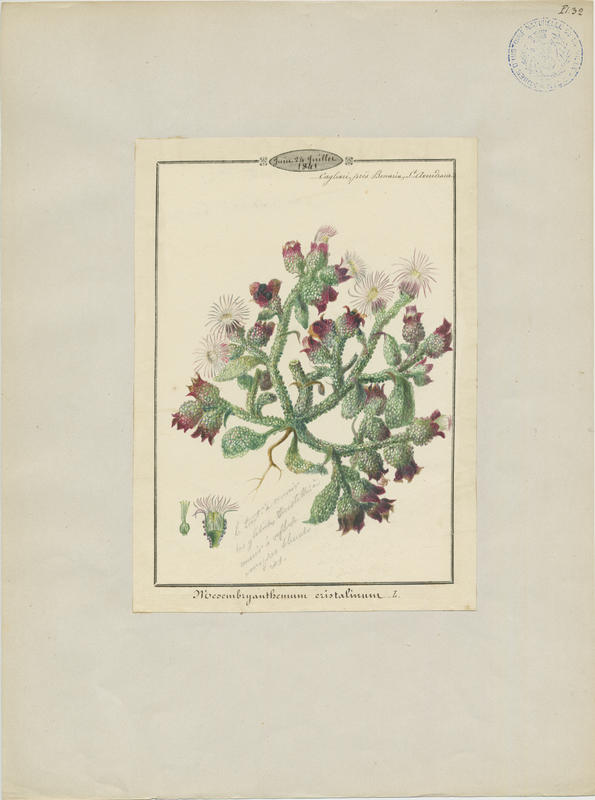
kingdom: Plantae
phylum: Tracheophyta
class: Magnoliopsida
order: Caryophyllales
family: Aizoaceae
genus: Mesembryanthemum
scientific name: Mesembryanthemum crystallinum
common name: Common iceplant
